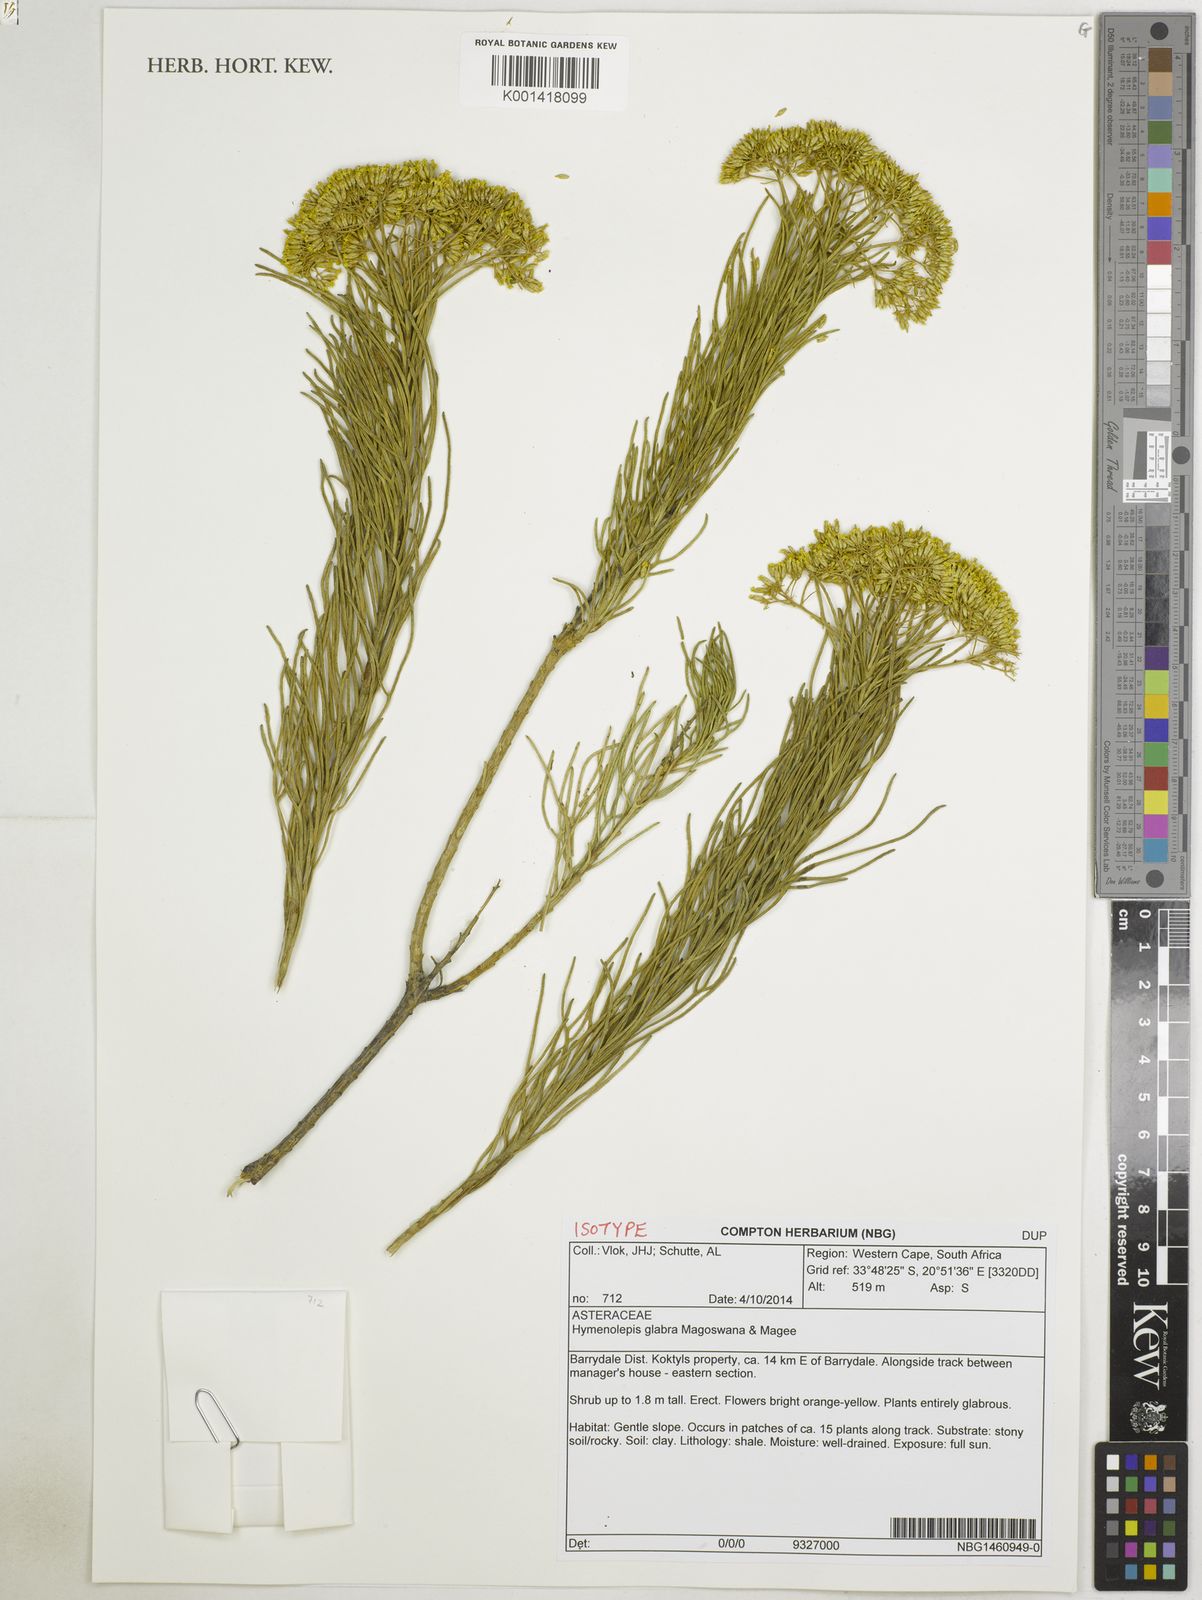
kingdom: Plantae
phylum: Tracheophyta
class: Magnoliopsida
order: Asterales
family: Asteraceae
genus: Hymenolepis
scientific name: Hymenolepis glabra
